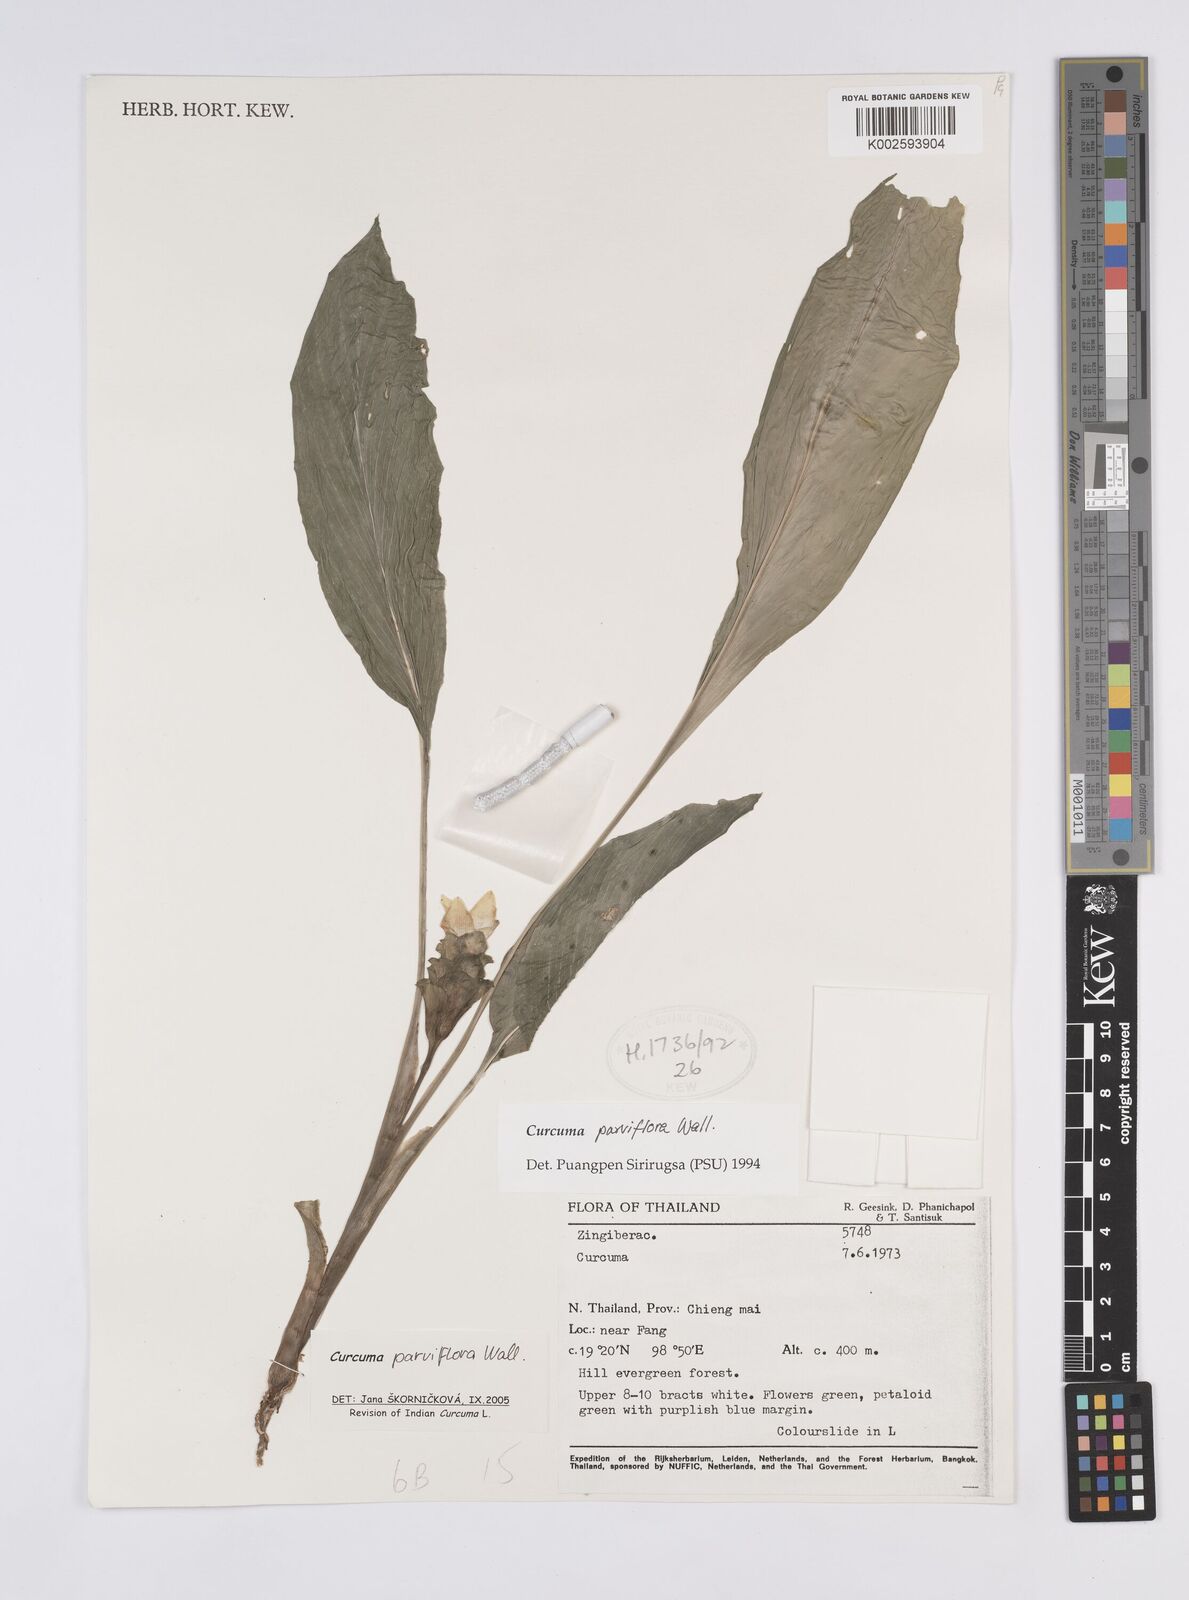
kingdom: Plantae
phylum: Tracheophyta
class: Liliopsida
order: Zingiberales
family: Zingiberaceae
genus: Curcuma
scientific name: Curcuma parviflora
